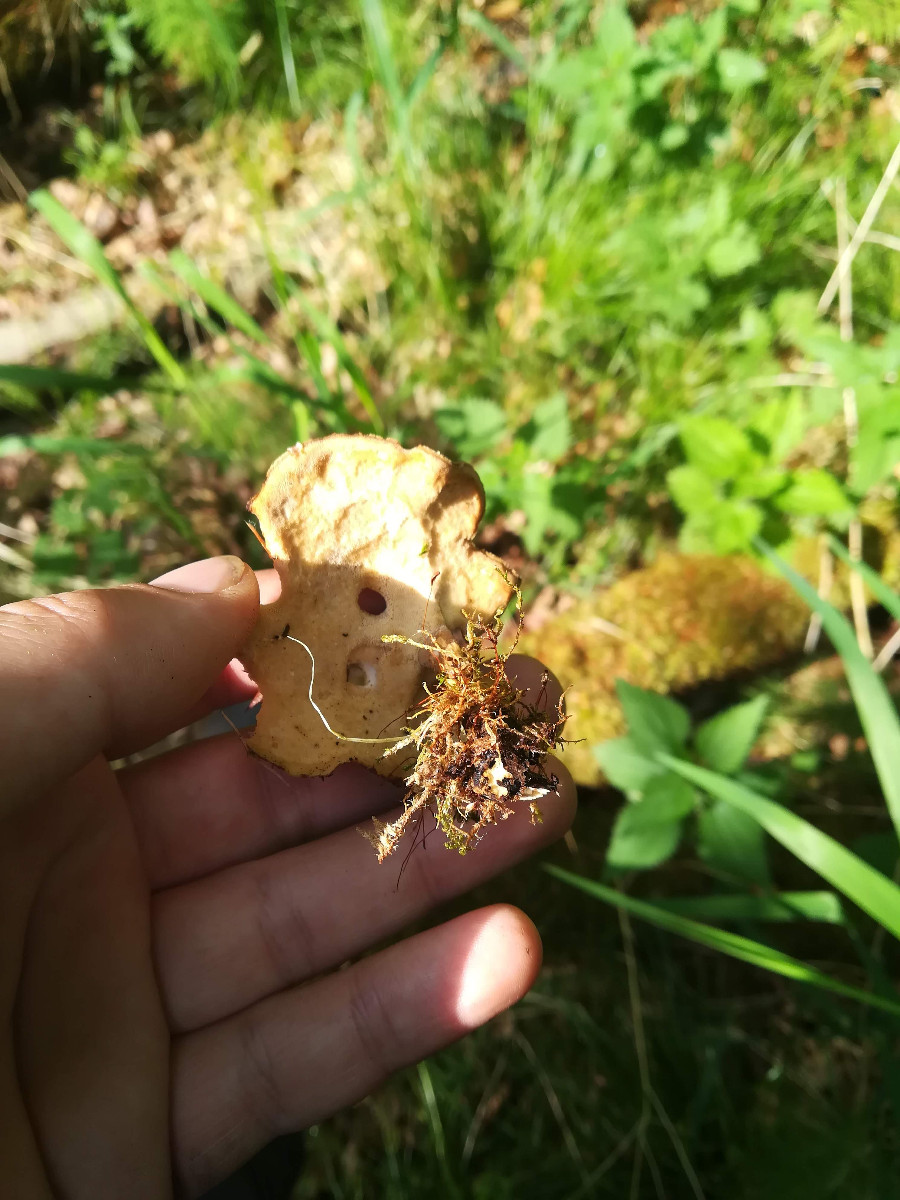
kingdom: Fungi
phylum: Basidiomycota
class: Agaricomycetes
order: Polyporales
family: Polyporaceae
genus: Lentinus
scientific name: Lentinus substrictus
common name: forårs-stilkporesvamp
